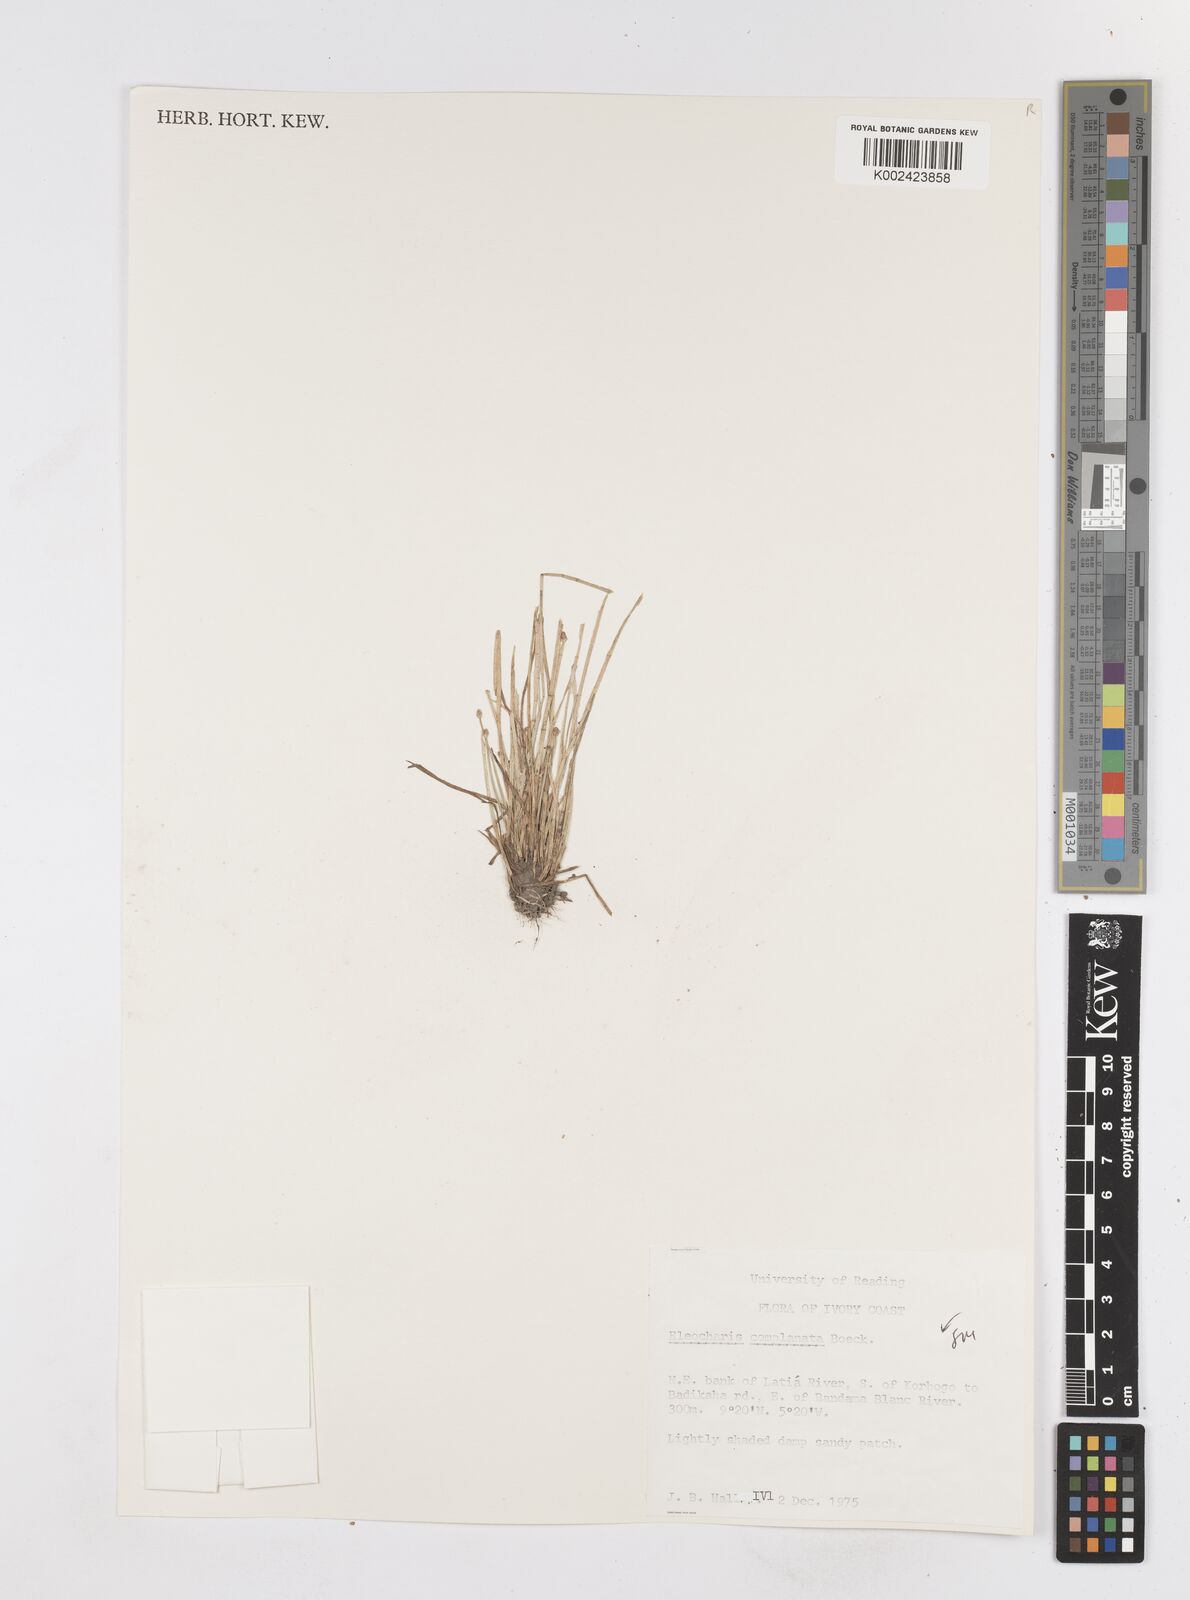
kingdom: Plantae
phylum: Tracheophyta
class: Liliopsida
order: Poales
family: Cyperaceae
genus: Eleocharis
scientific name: Eleocharis complanata
